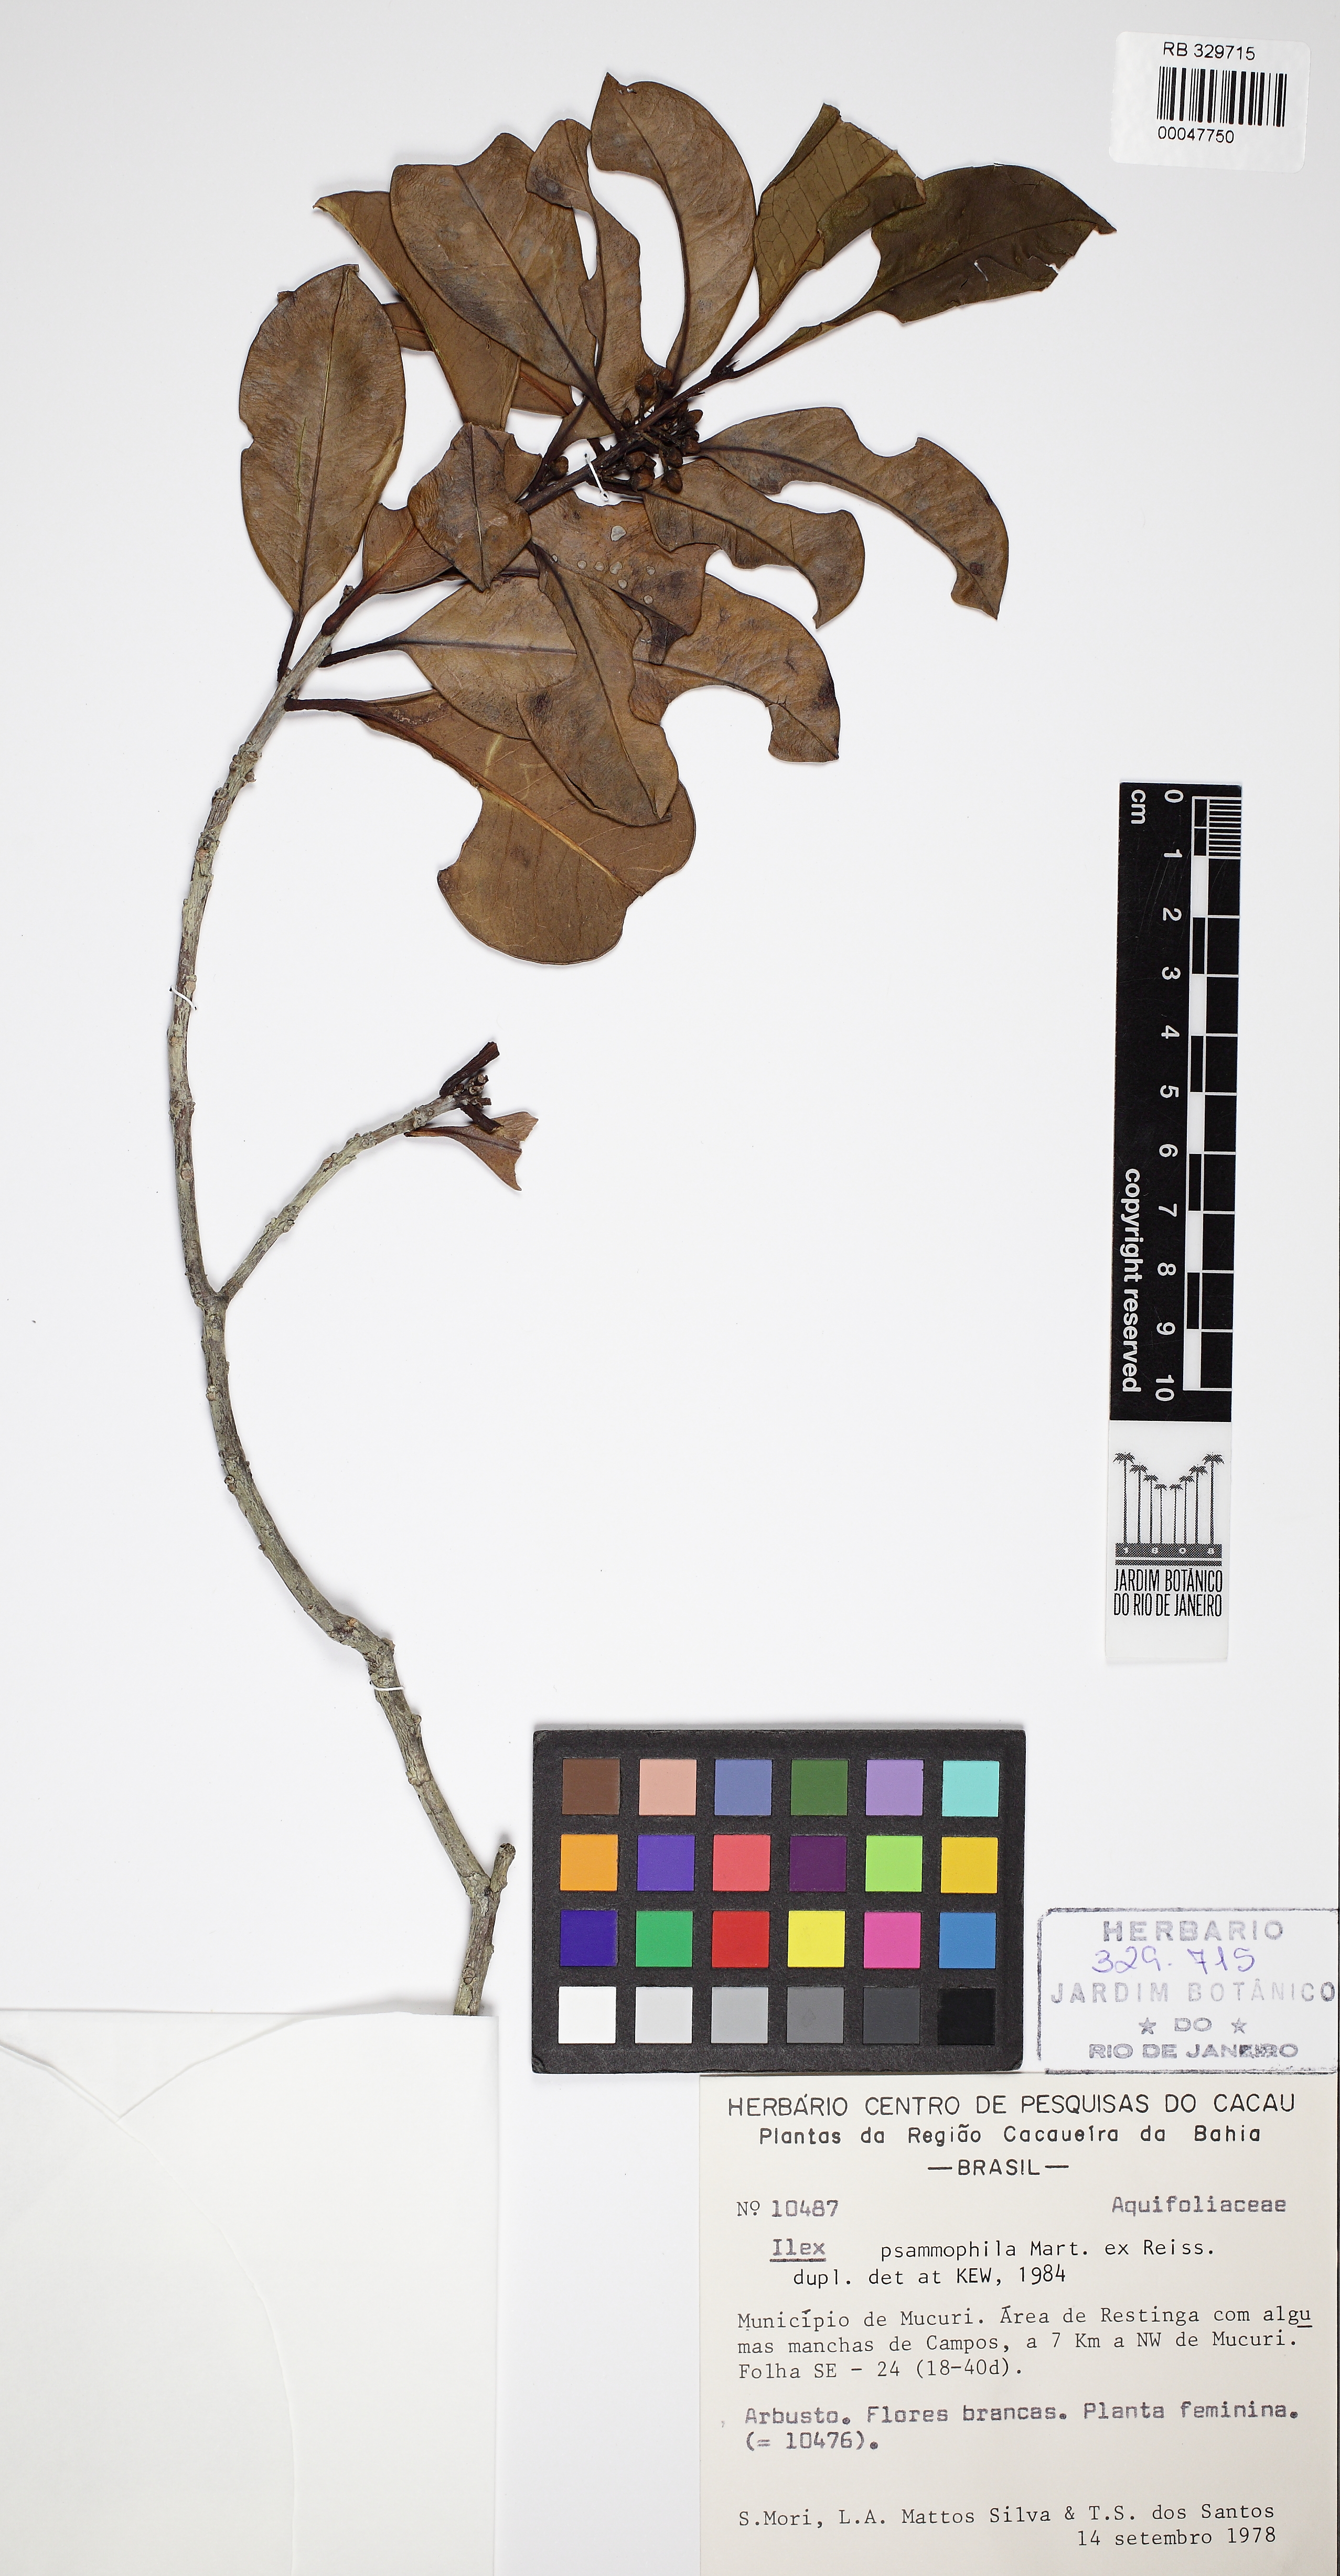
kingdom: Plantae
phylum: Tracheophyta
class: Magnoliopsida
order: Aquifoliales
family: Aquifoliaceae
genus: Ilex
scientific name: Ilex psammophila
